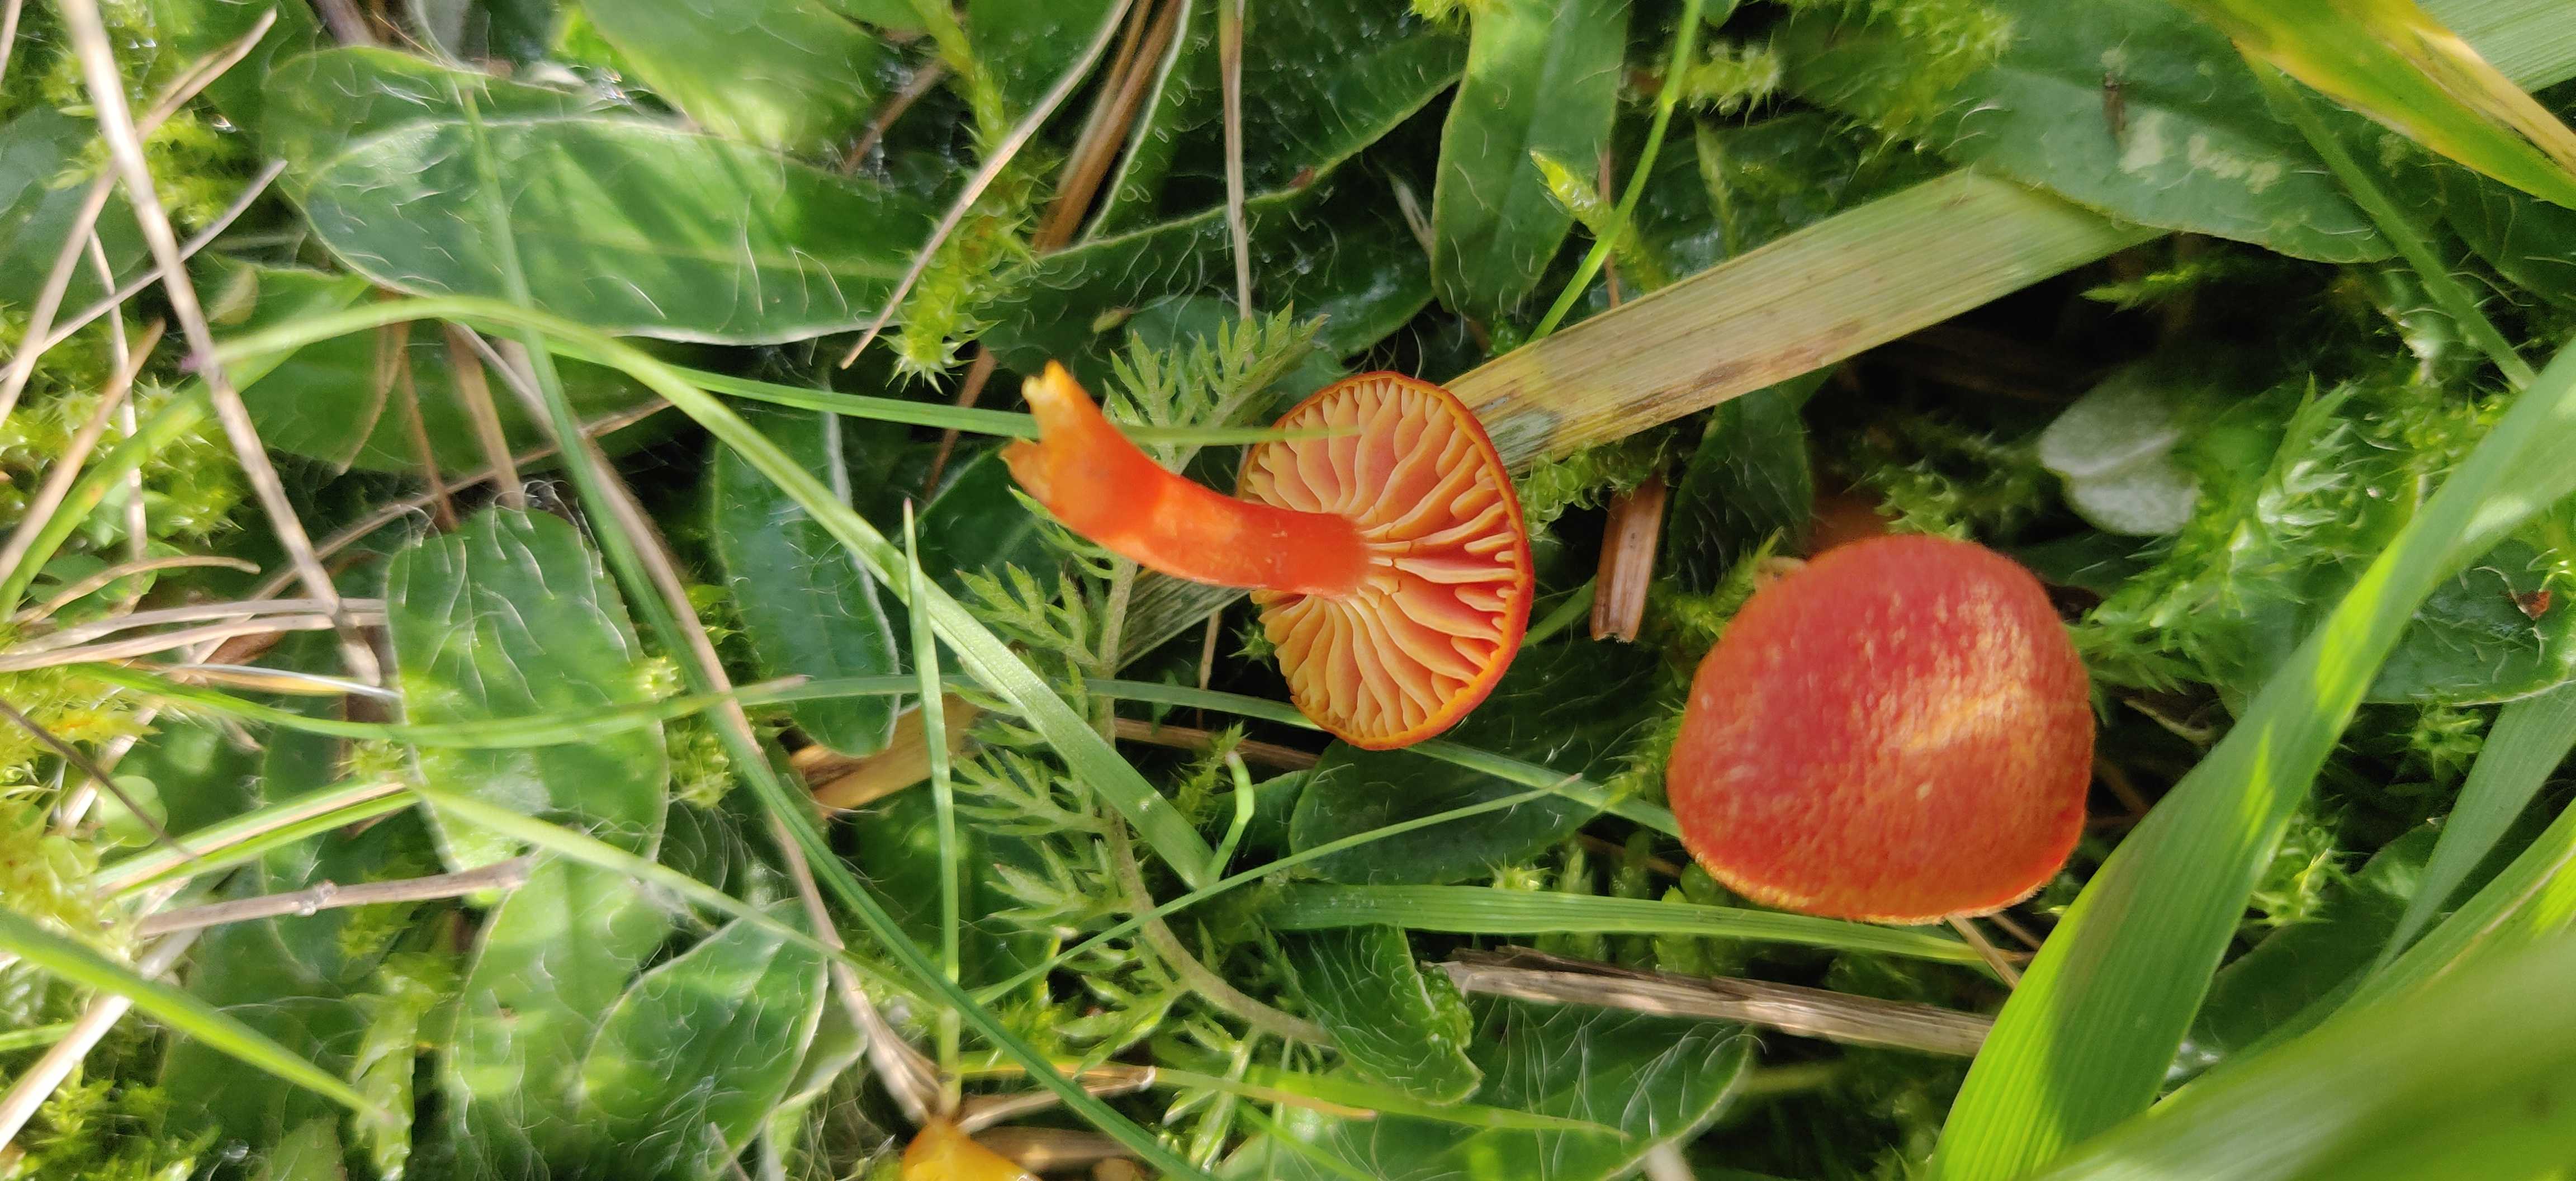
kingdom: Fungi
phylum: Basidiomycota
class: Agaricomycetes
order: Agaricales
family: Hygrophoraceae
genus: Hygrocybe
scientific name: Hygrocybe miniata
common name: mønje-vokshat
